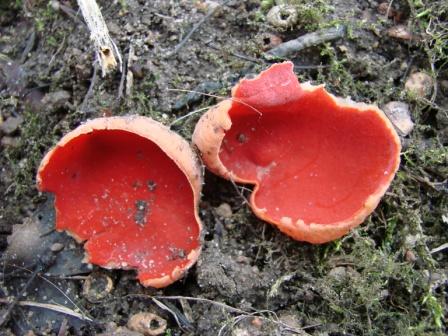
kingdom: Fungi
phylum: Ascomycota
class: Pezizomycetes
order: Pezizales
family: Sarcoscyphaceae
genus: Sarcoscypha
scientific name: Sarcoscypha austriaca
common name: krølhåret pragtbæger
